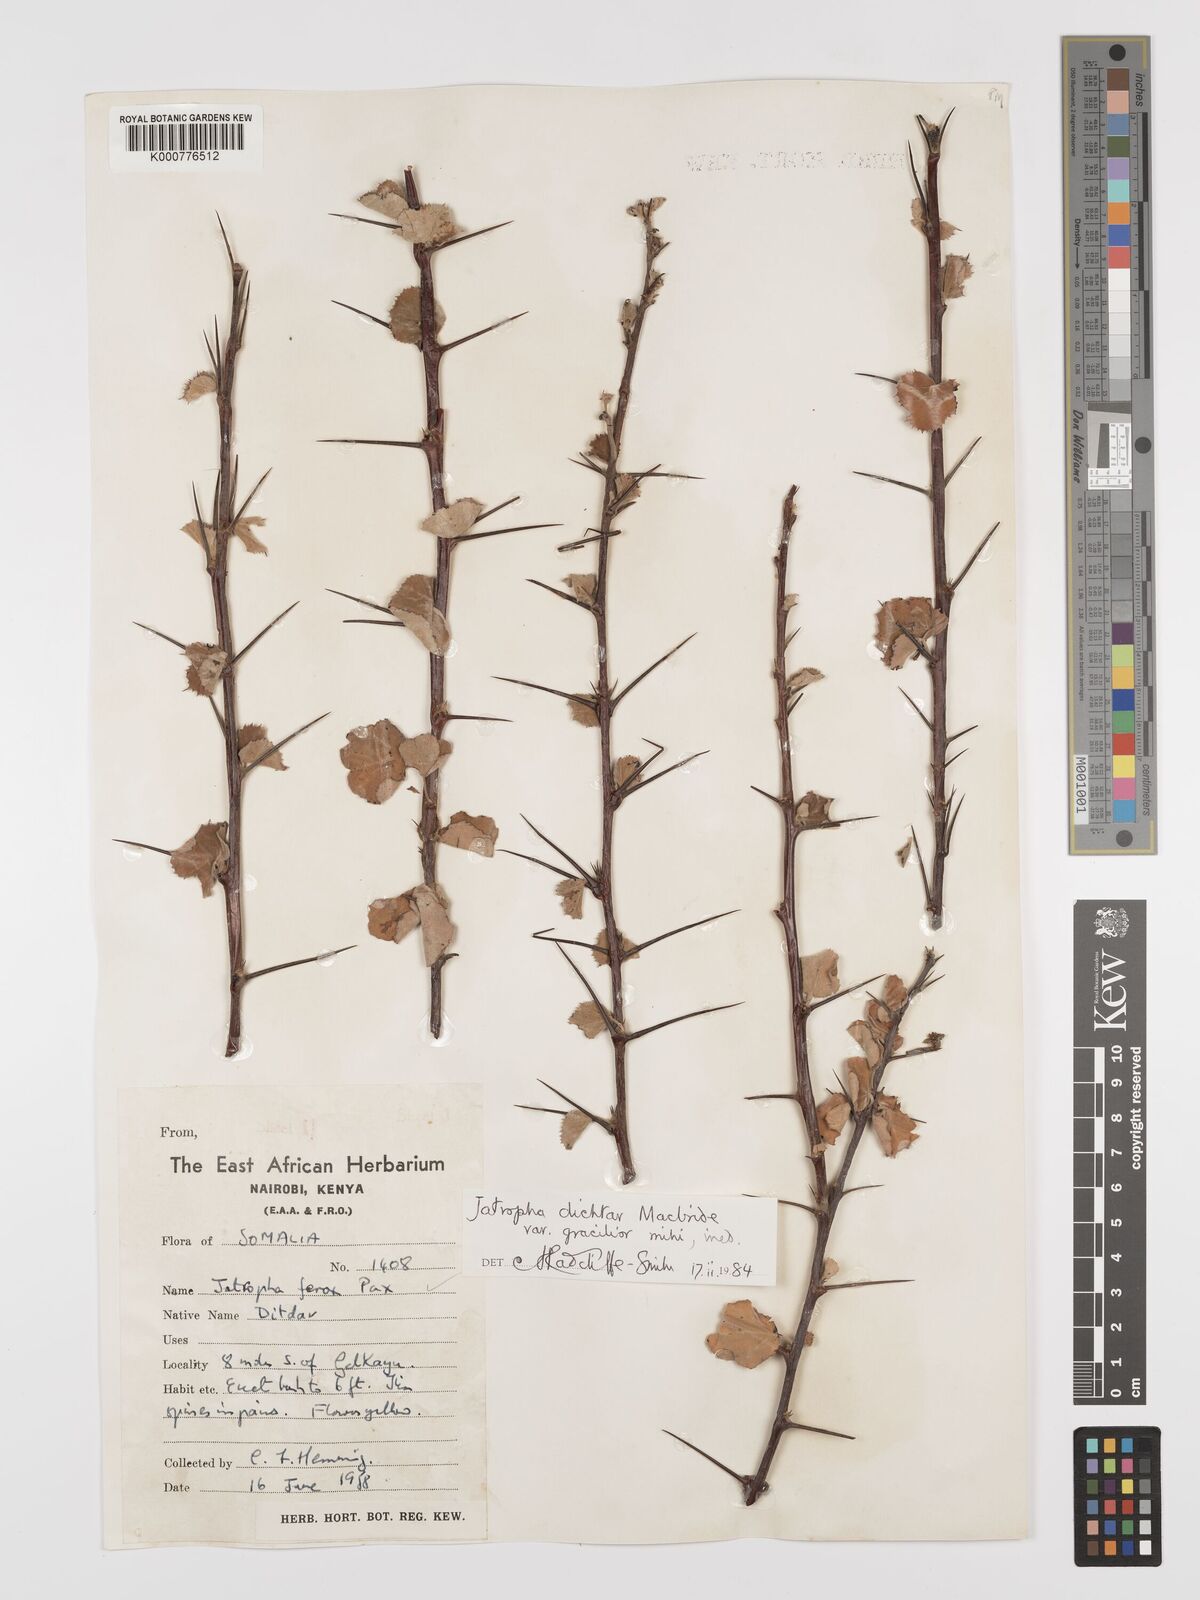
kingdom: Plantae
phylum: Tracheophyta
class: Magnoliopsida
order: Malpighiales
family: Euphorbiaceae
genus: Jatropha
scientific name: Jatropha dichtar
